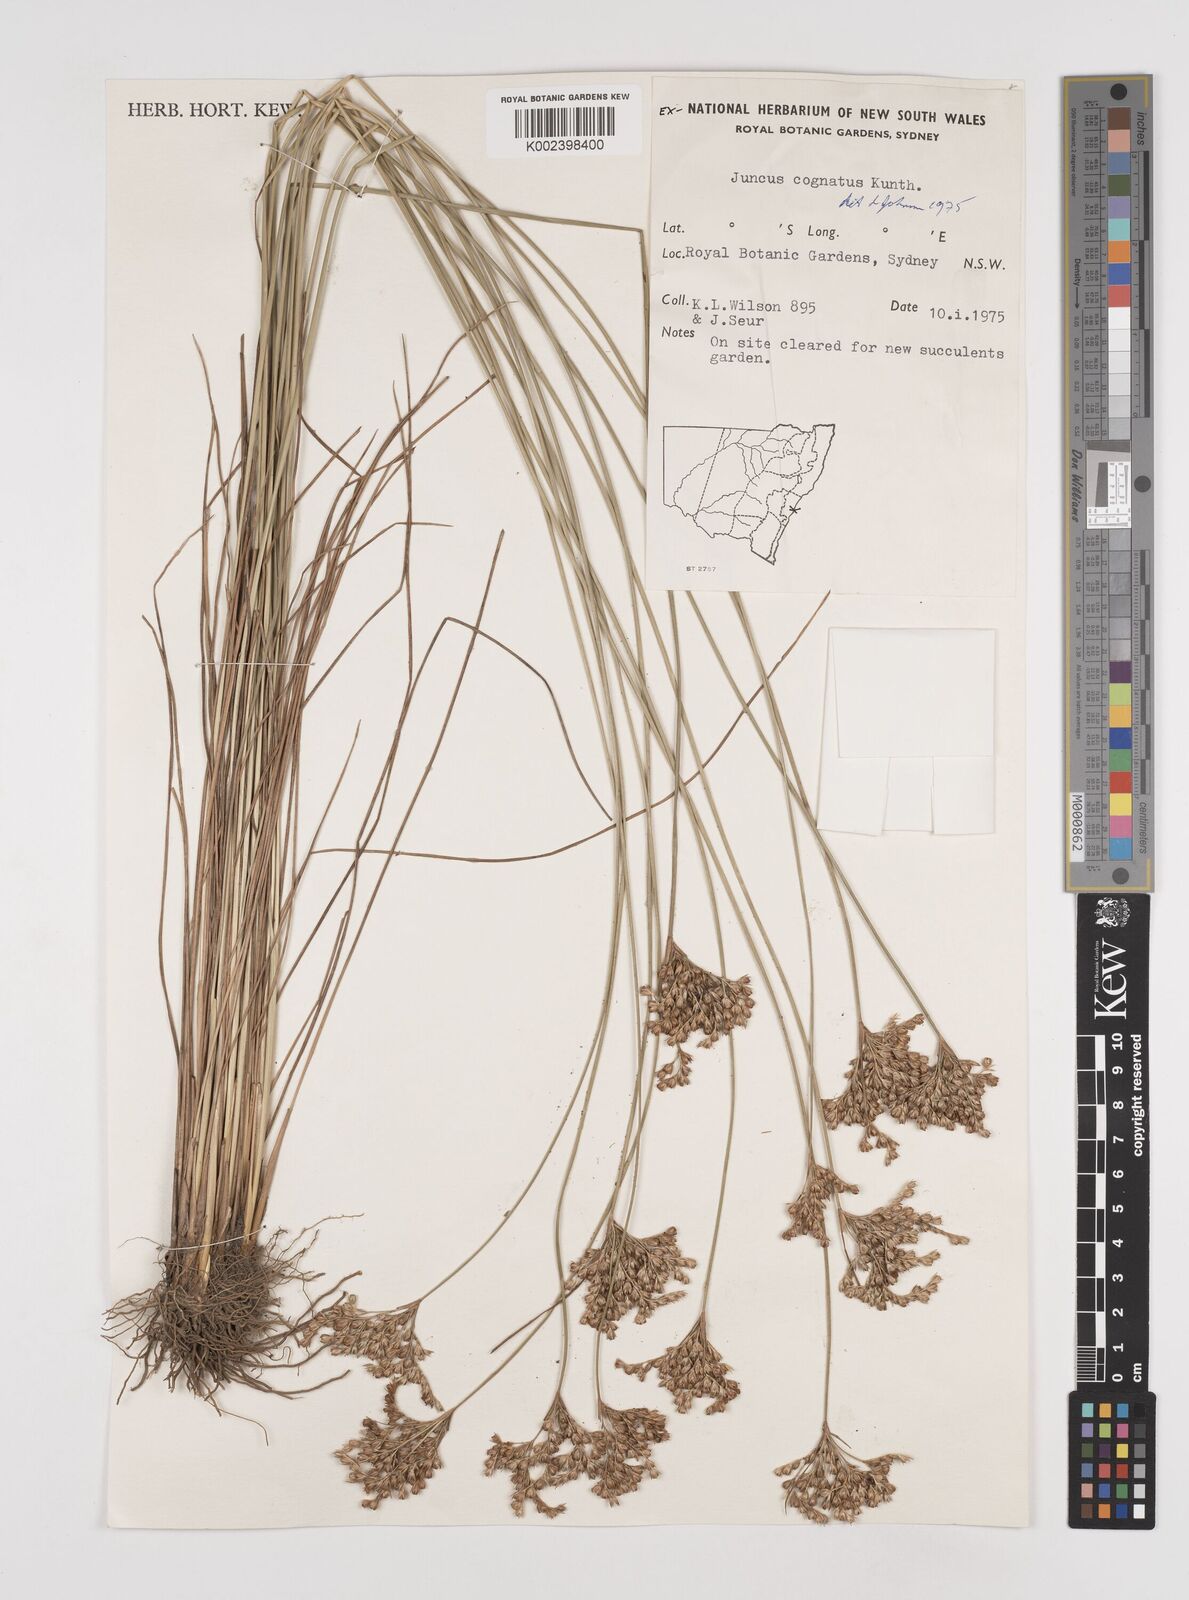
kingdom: Plantae
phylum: Tracheophyta
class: Liliopsida
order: Poales
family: Juncaceae
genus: Juncus
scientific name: Juncus dichotomus
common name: Forked rush
